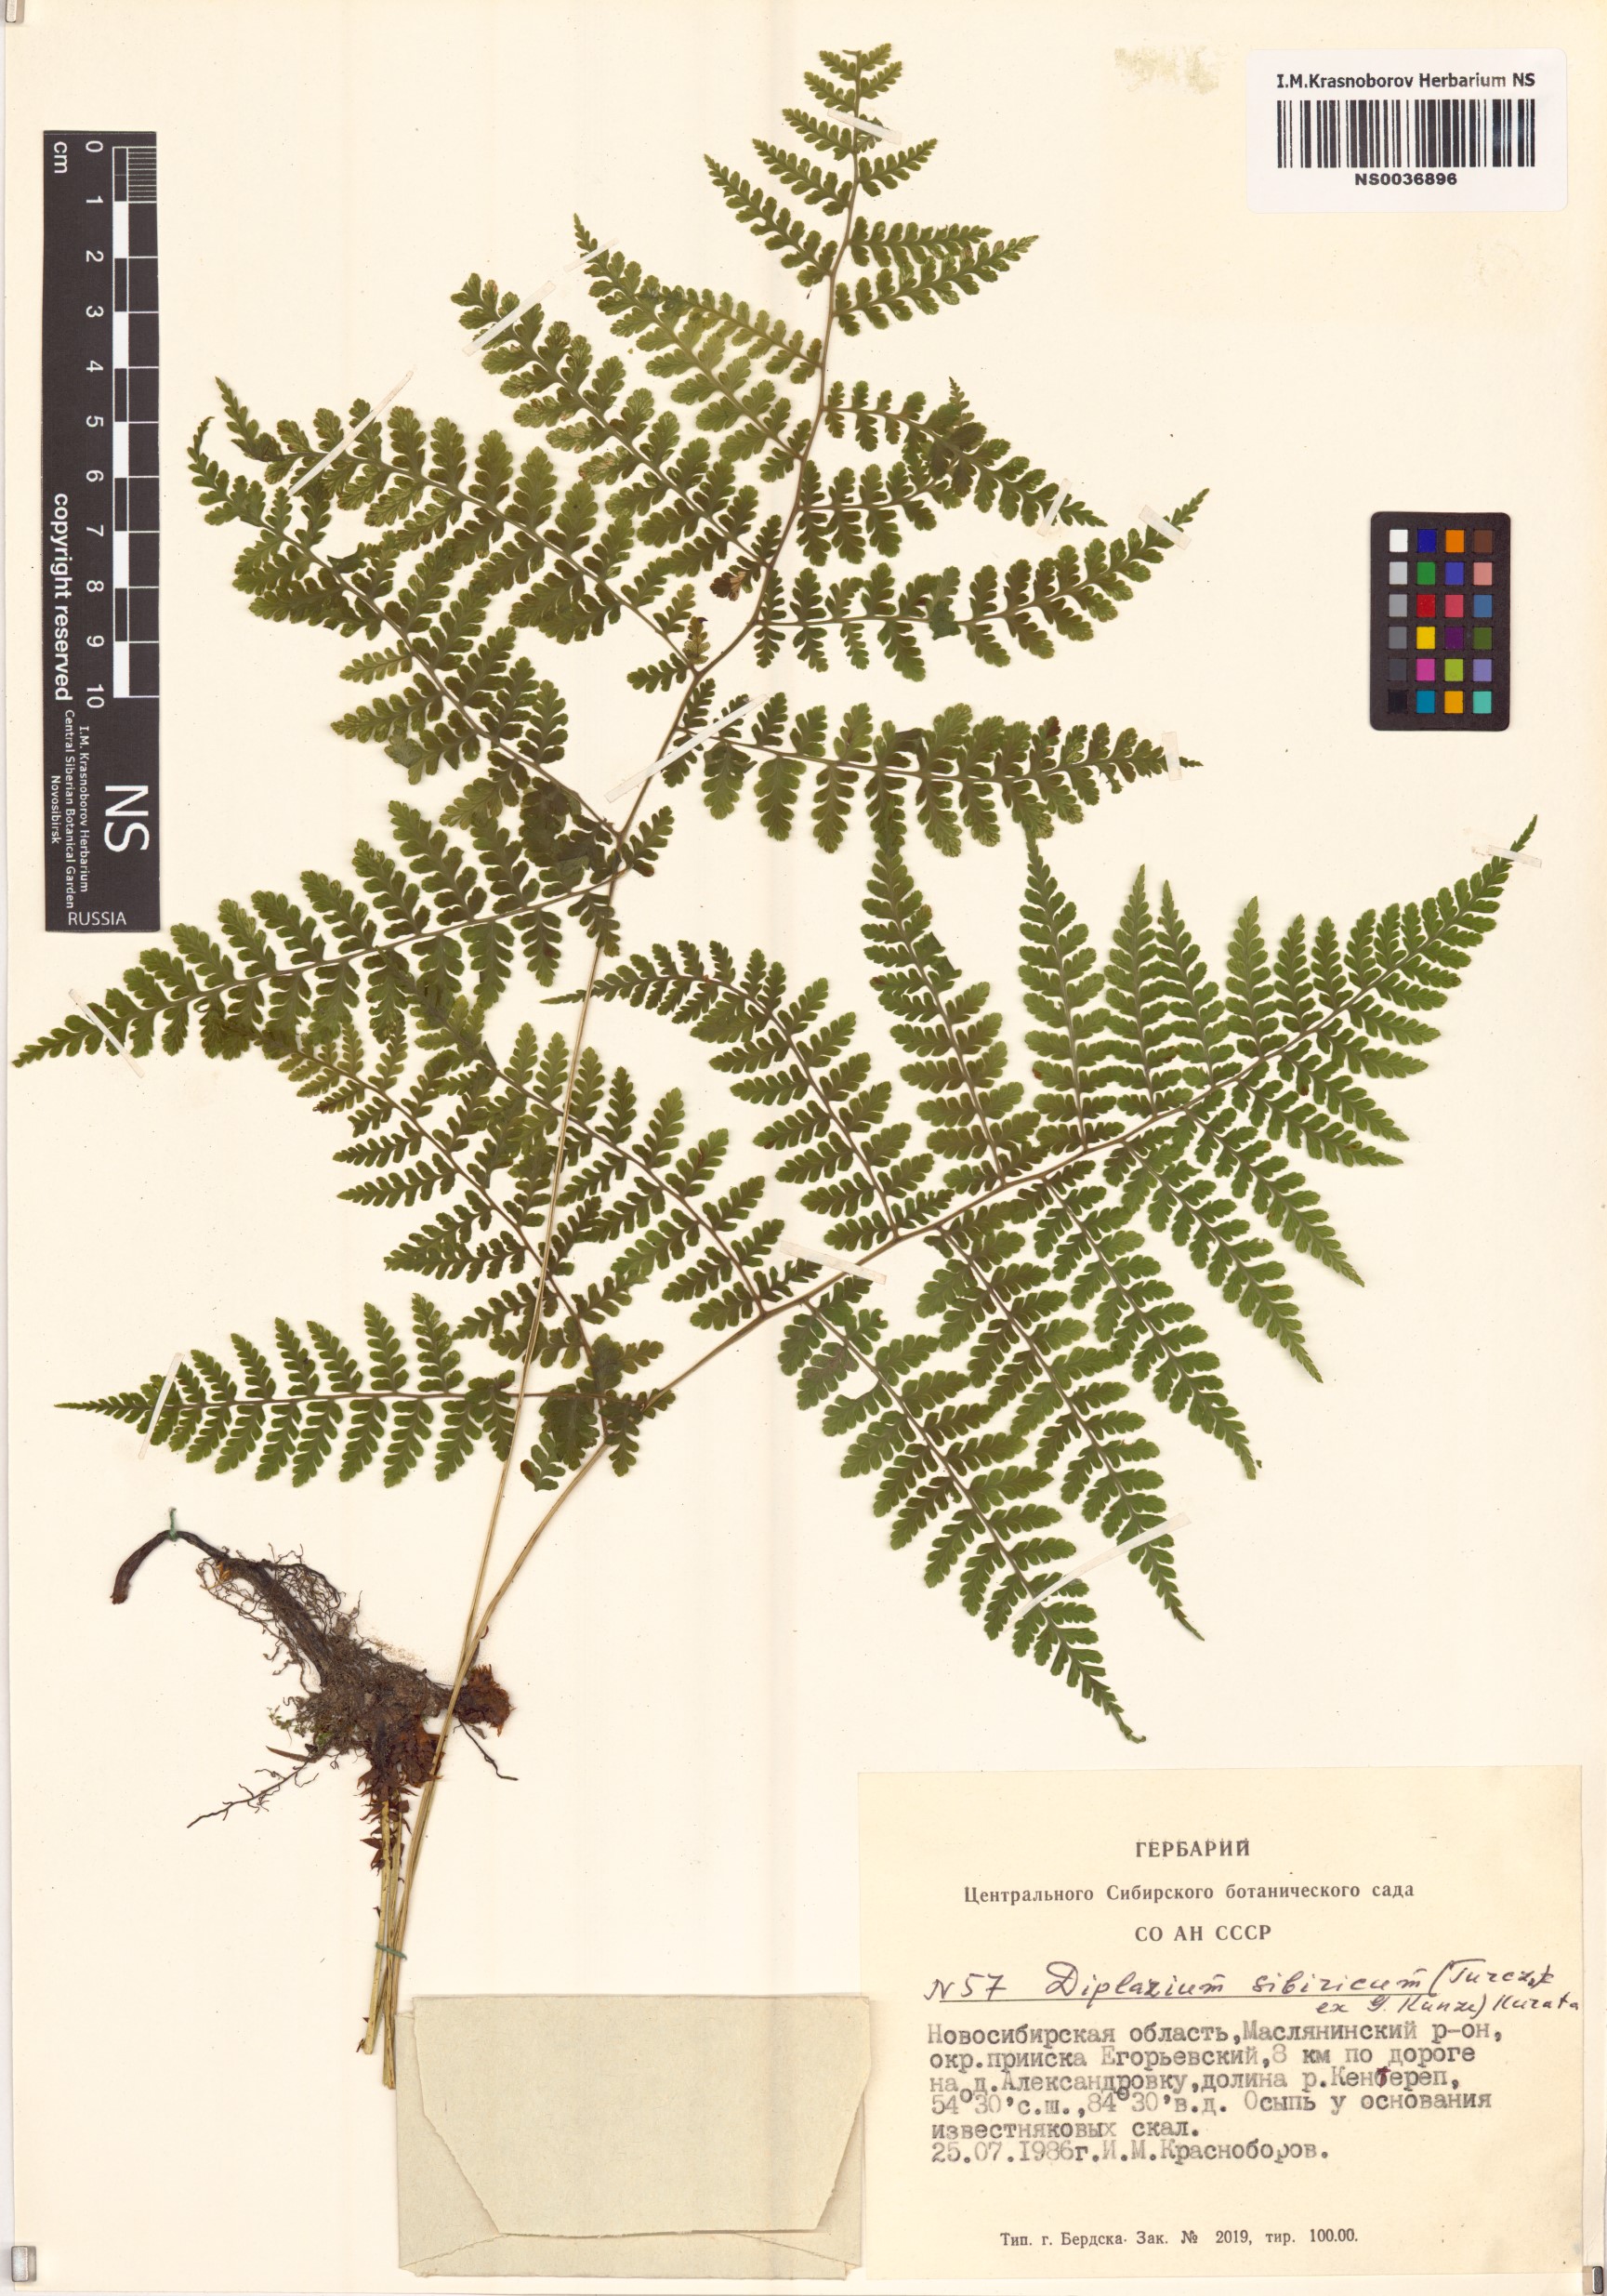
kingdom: Plantae
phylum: Tracheophyta
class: Polypodiopsida
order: Polypodiales
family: Athyriaceae
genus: Diplazium
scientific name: Diplazium sibiricum
